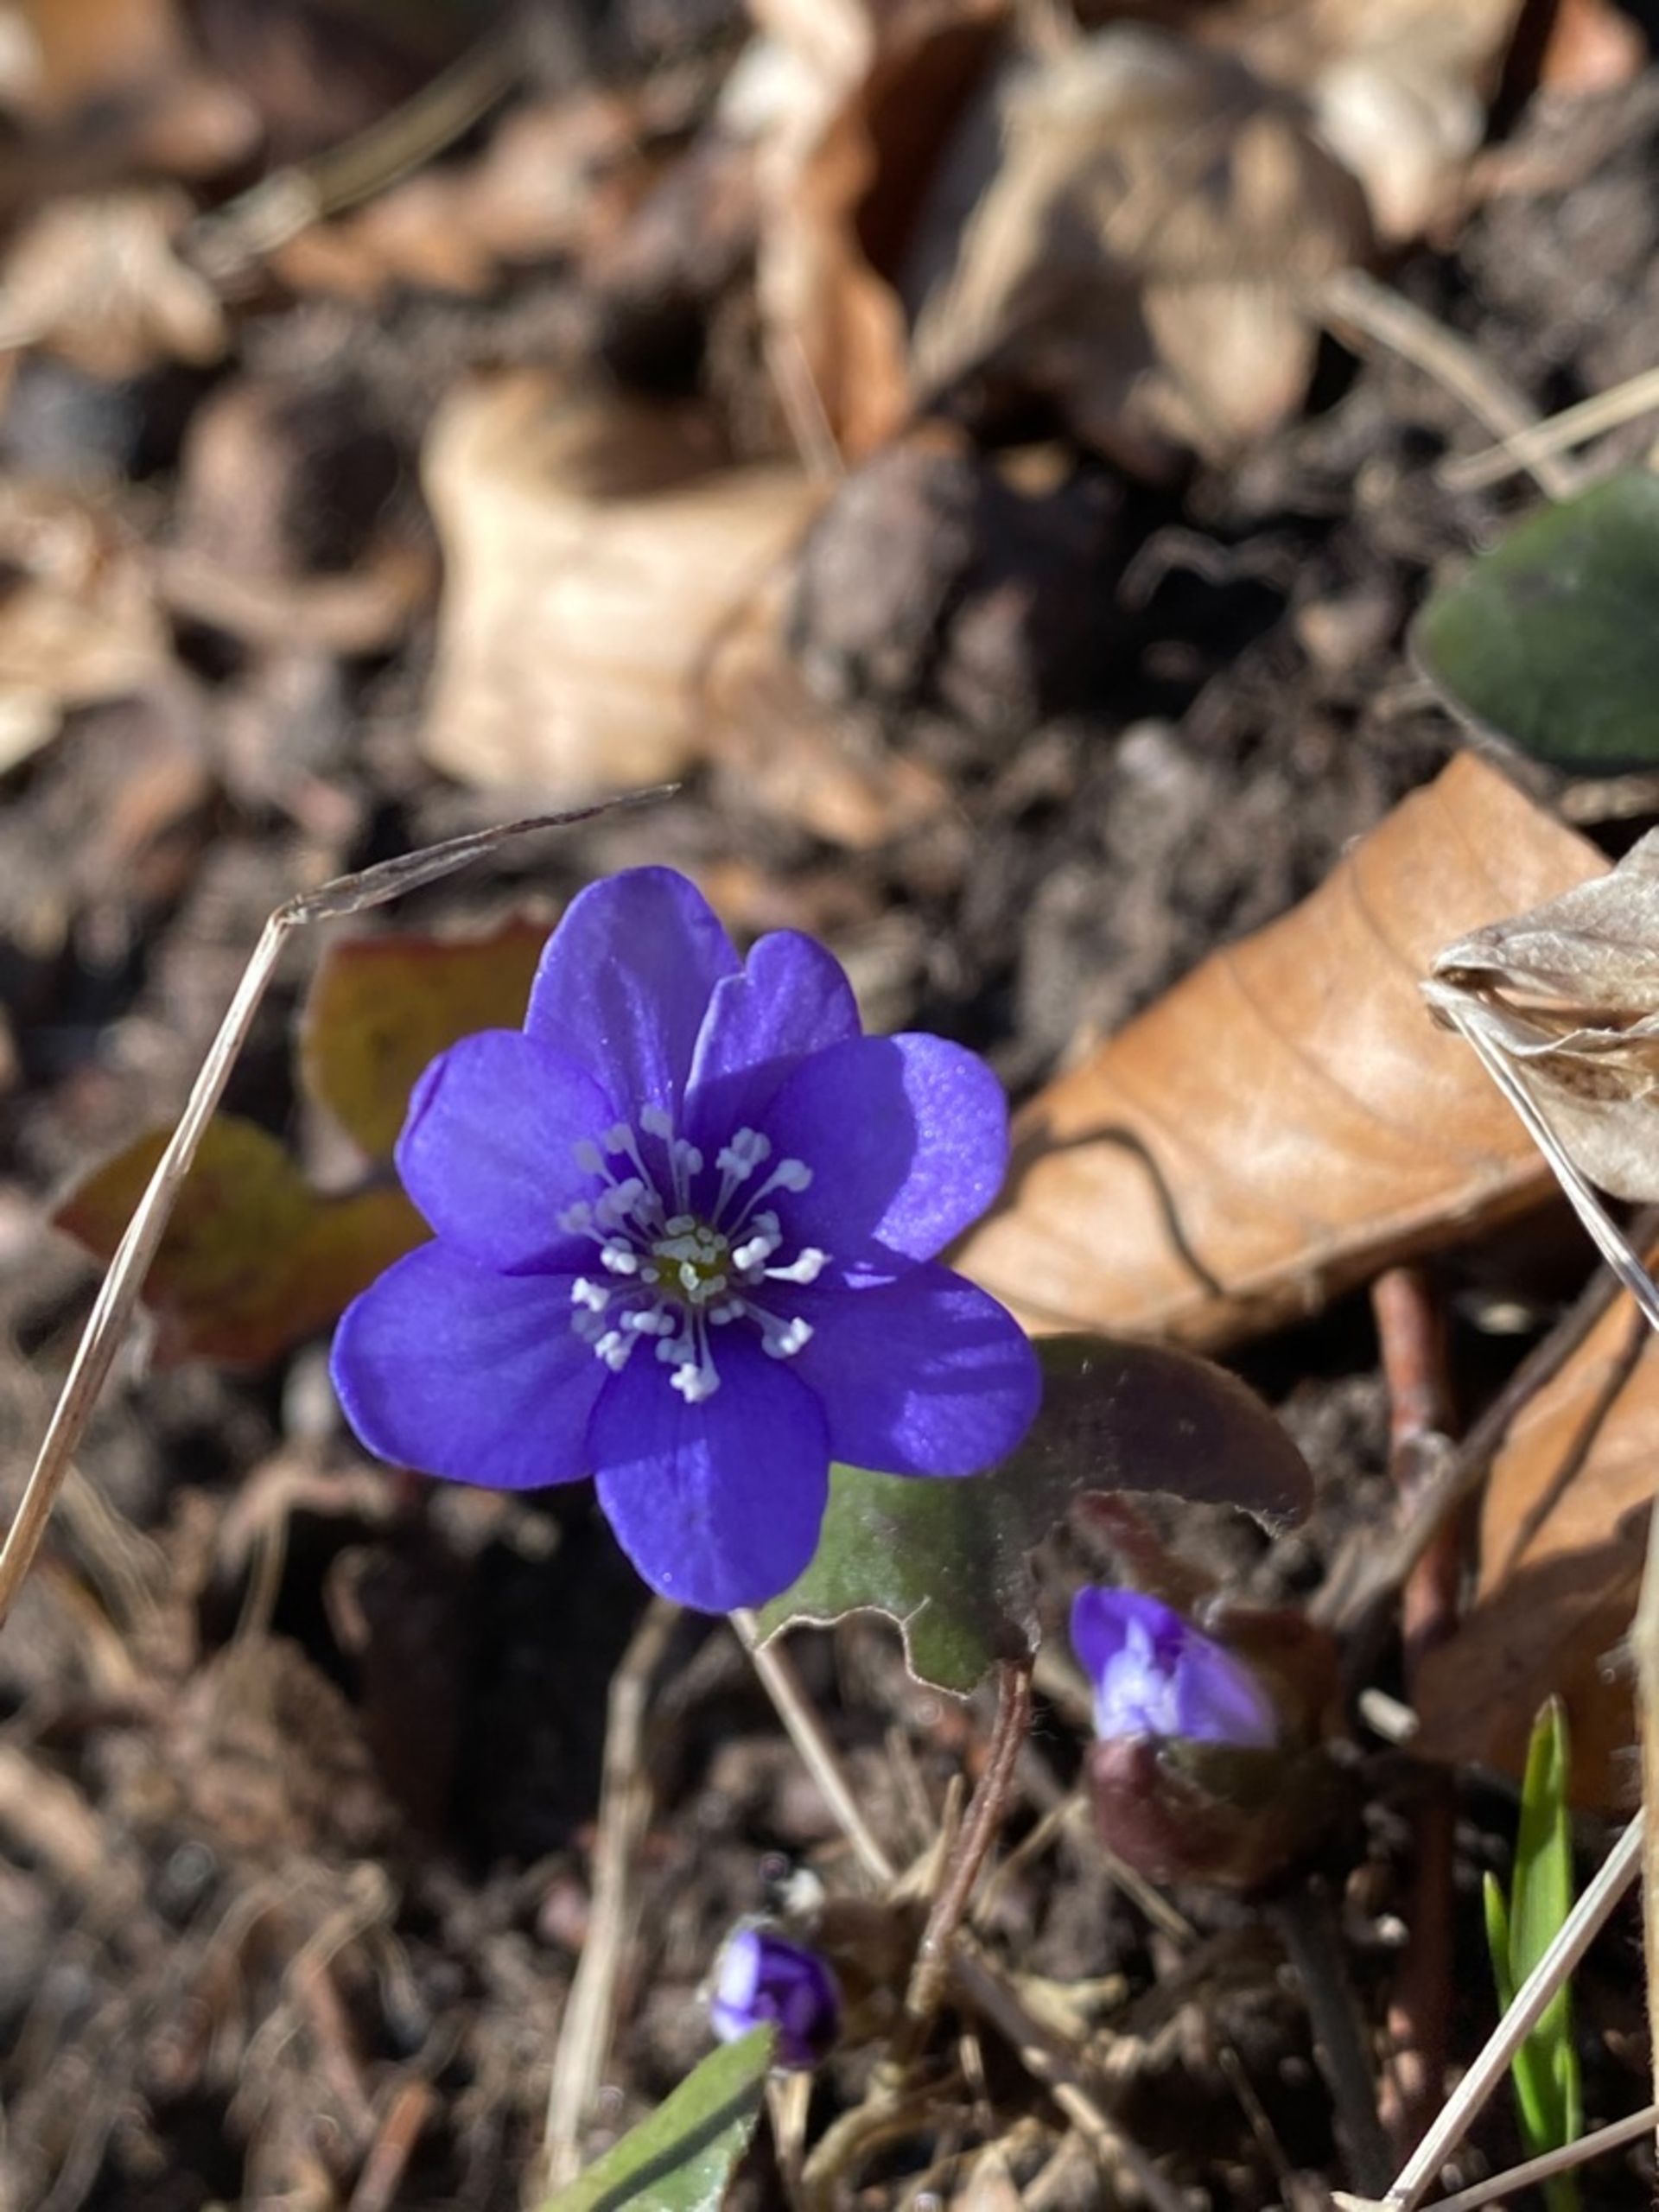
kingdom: Plantae
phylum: Tracheophyta
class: Magnoliopsida
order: Ranunculales
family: Ranunculaceae
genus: Hepatica
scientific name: Hepatica nobilis
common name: Blå anemone
